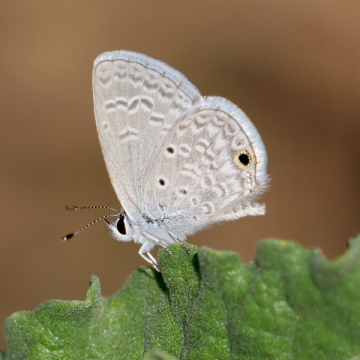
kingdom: Animalia
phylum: Arthropoda
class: Insecta
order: Lepidoptera
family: Lycaenidae
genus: Hemiargus
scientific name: Hemiargus ceraunus
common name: Ceraunus Blue
